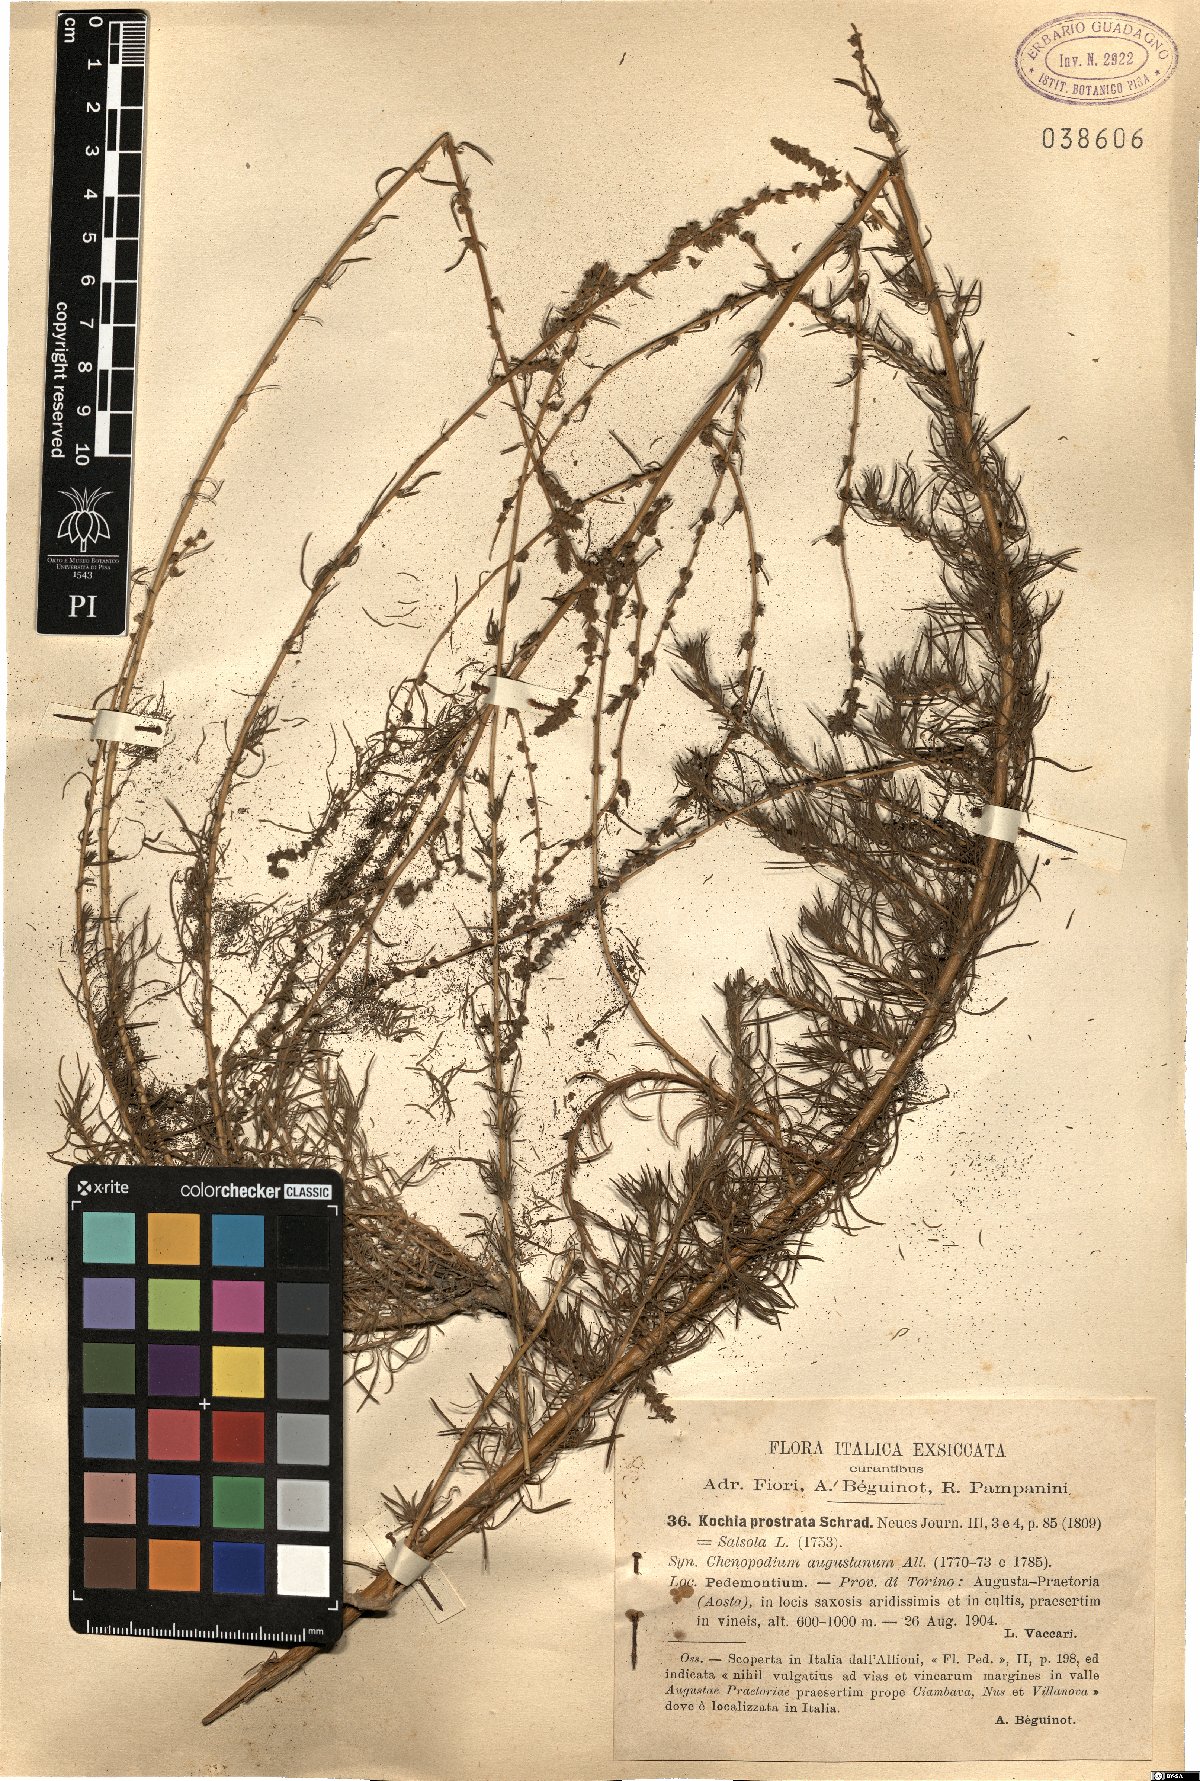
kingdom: Plantae
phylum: Tracheophyta
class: Magnoliopsida
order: Caryophyllales
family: Amaranthaceae
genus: Bassia
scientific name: Bassia prostrata
